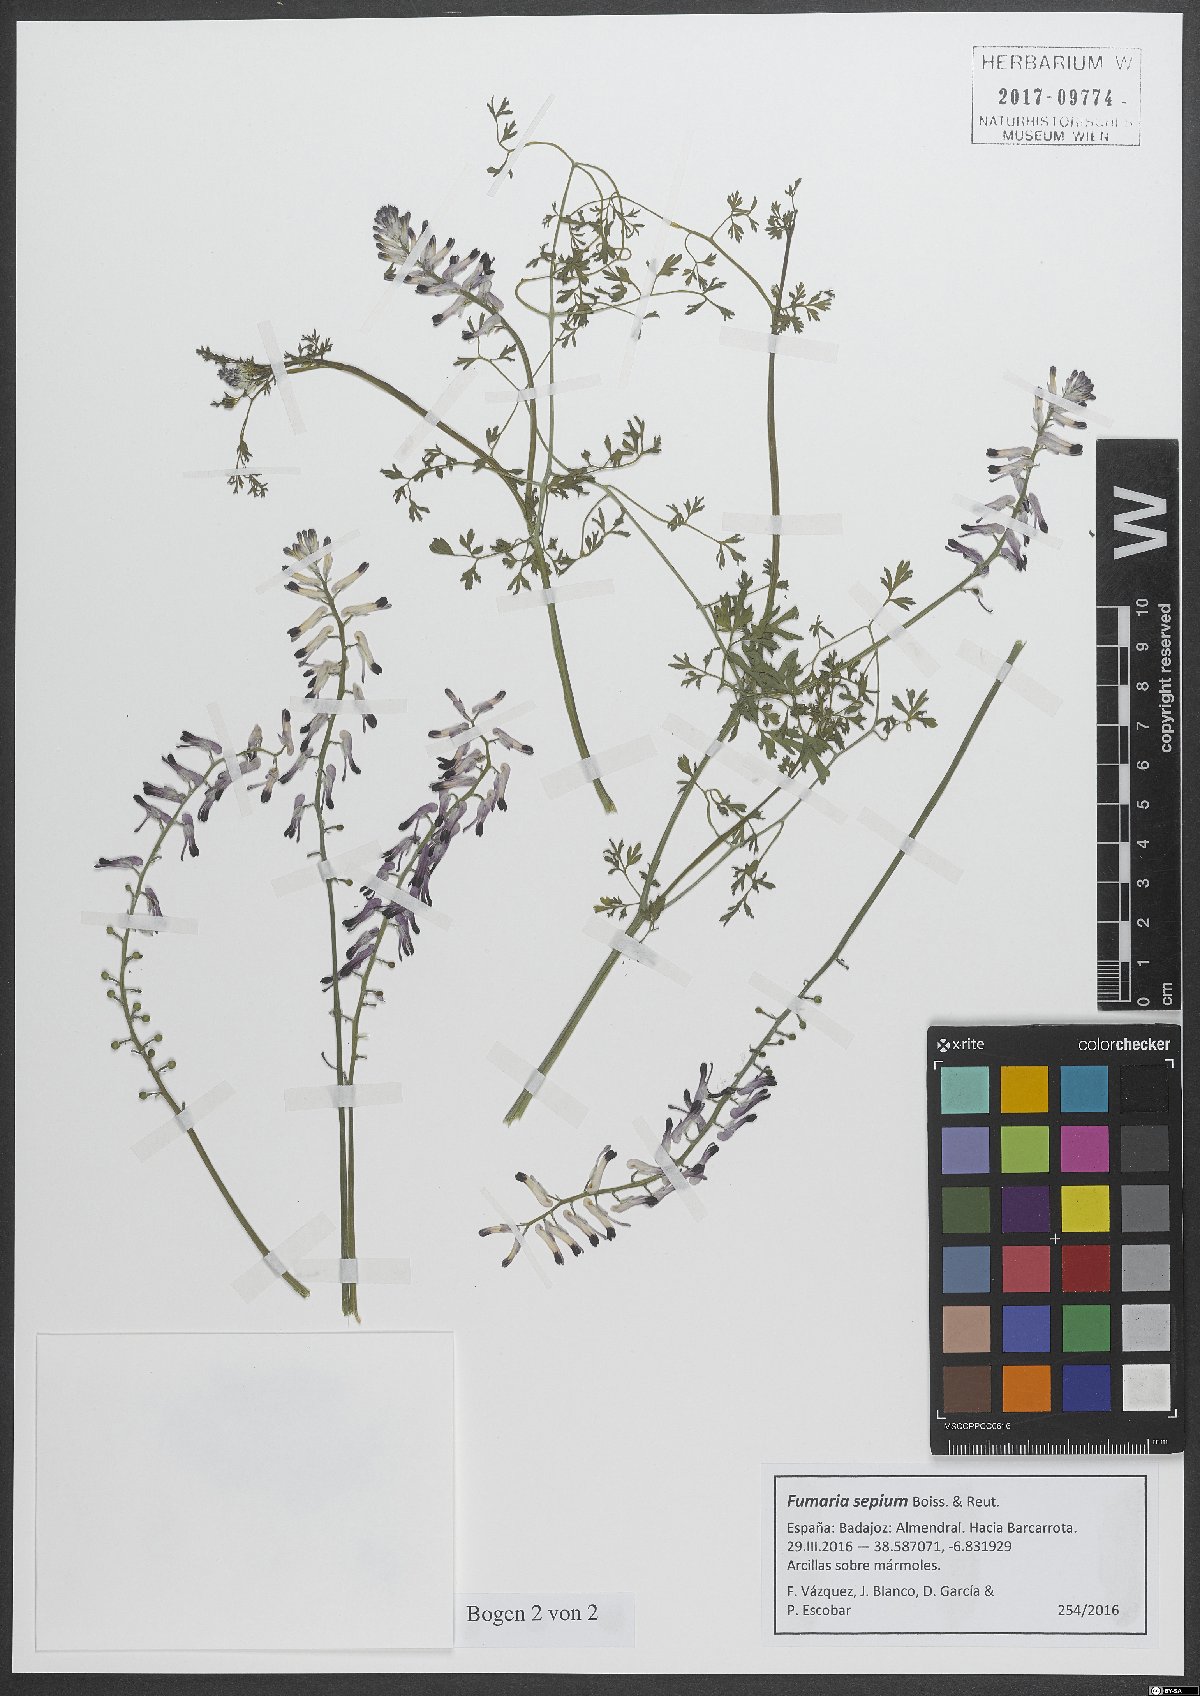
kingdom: Plantae
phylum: Tracheophyta
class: Magnoliopsida
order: Ranunculales
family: Papaveraceae
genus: Fumaria
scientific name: Fumaria sepium
